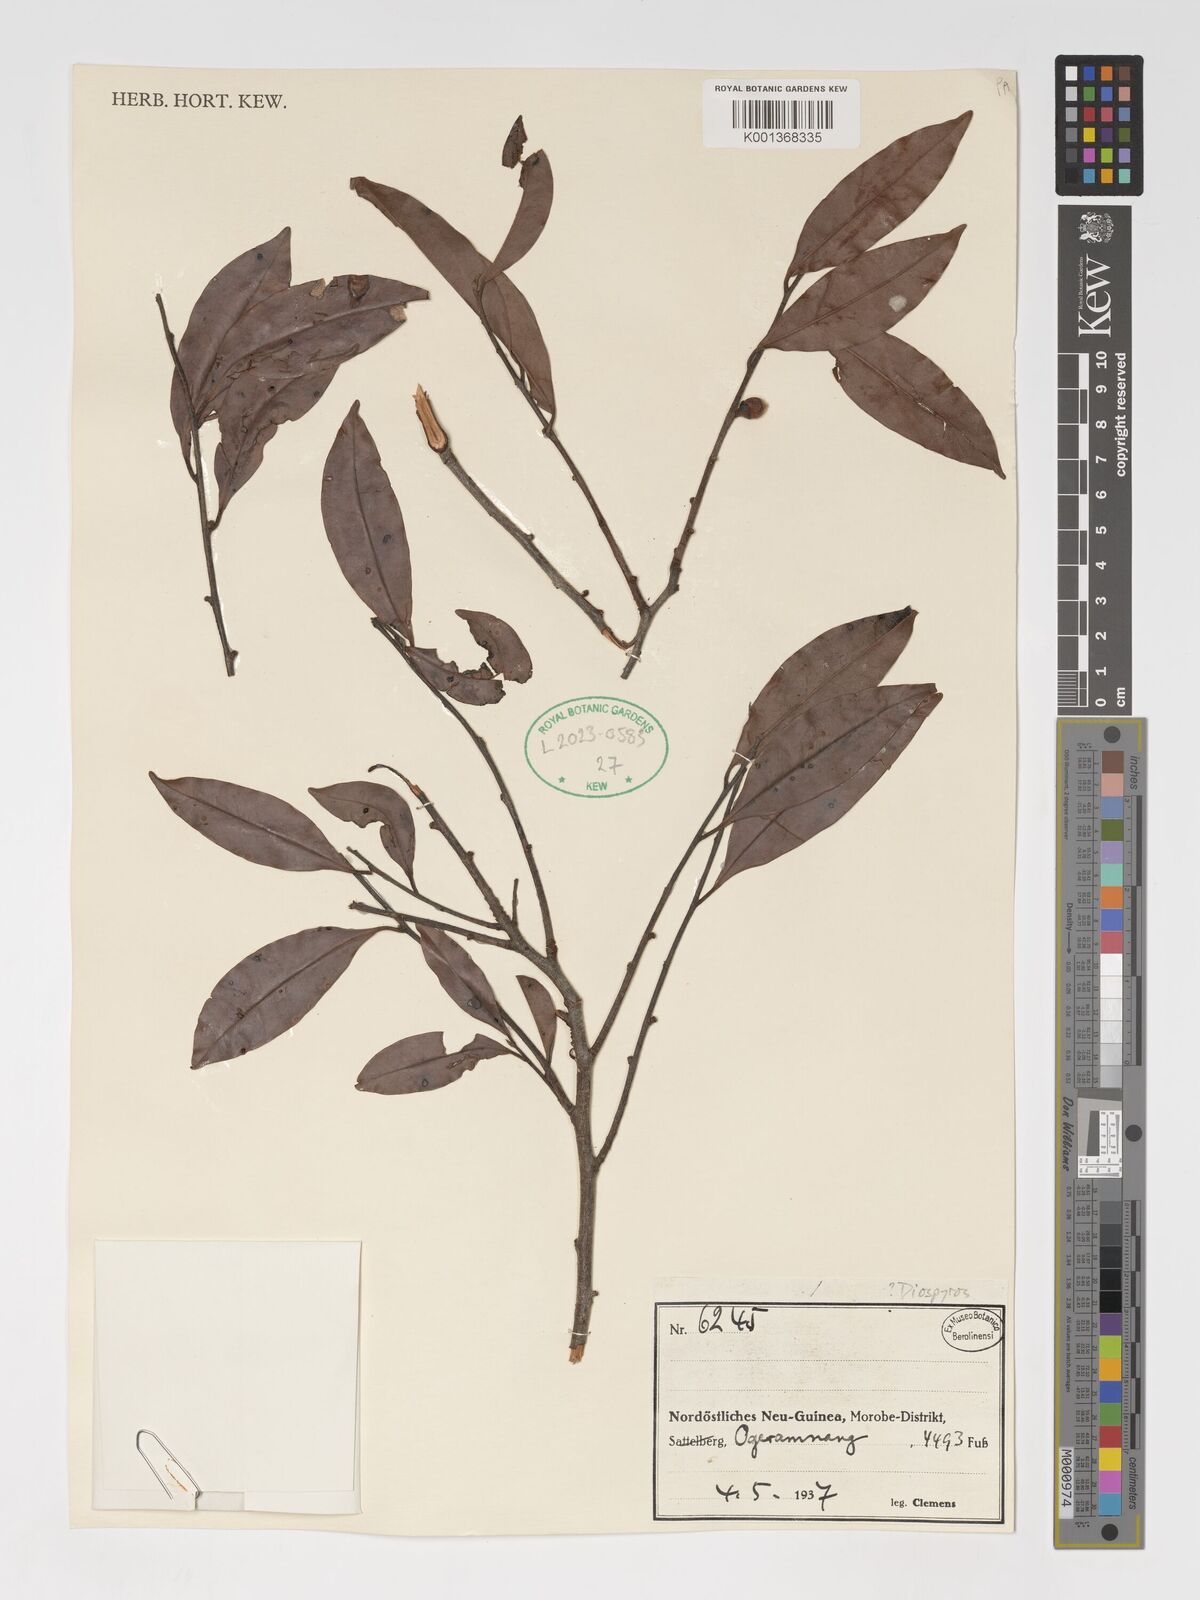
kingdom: Plantae
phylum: Tracheophyta
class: Magnoliopsida
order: Ericales
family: Ebenaceae
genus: Diospyros
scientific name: Diospyros
